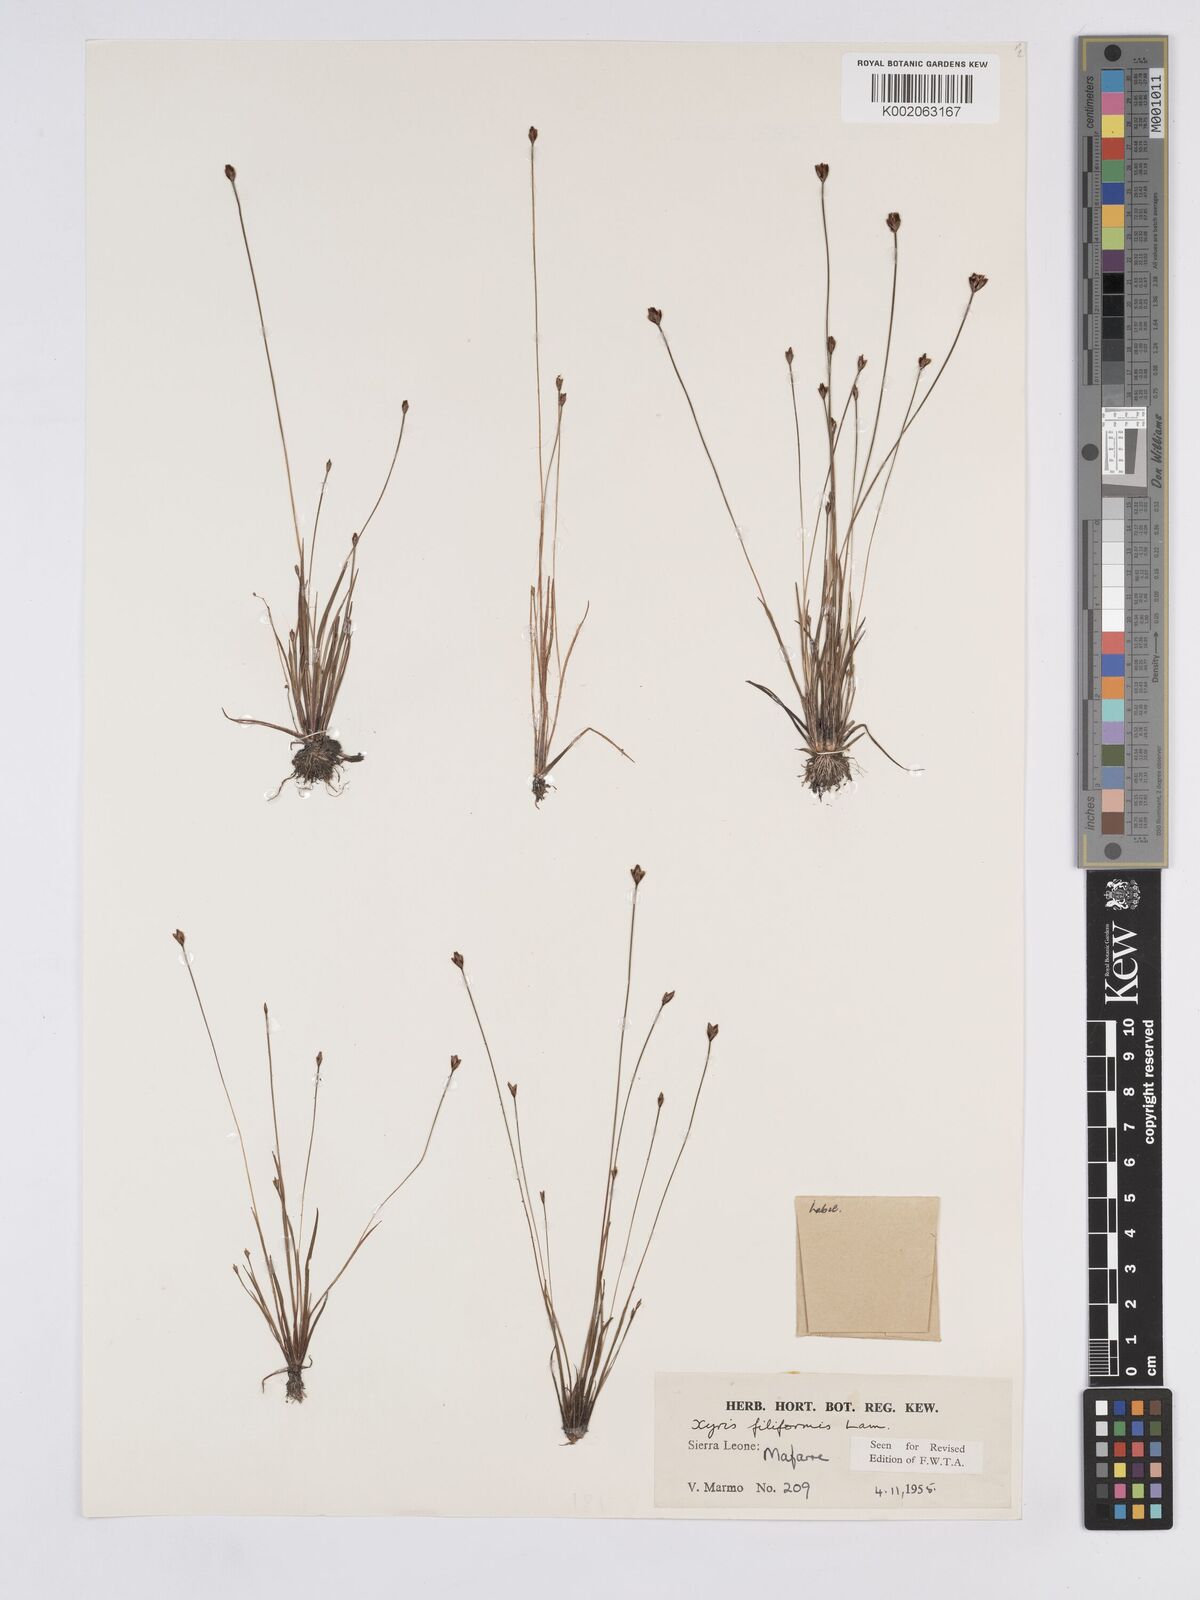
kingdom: Plantae
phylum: Tracheophyta
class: Liliopsida
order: Poales
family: Xyridaceae
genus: Xyris
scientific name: Xyris filiformis
